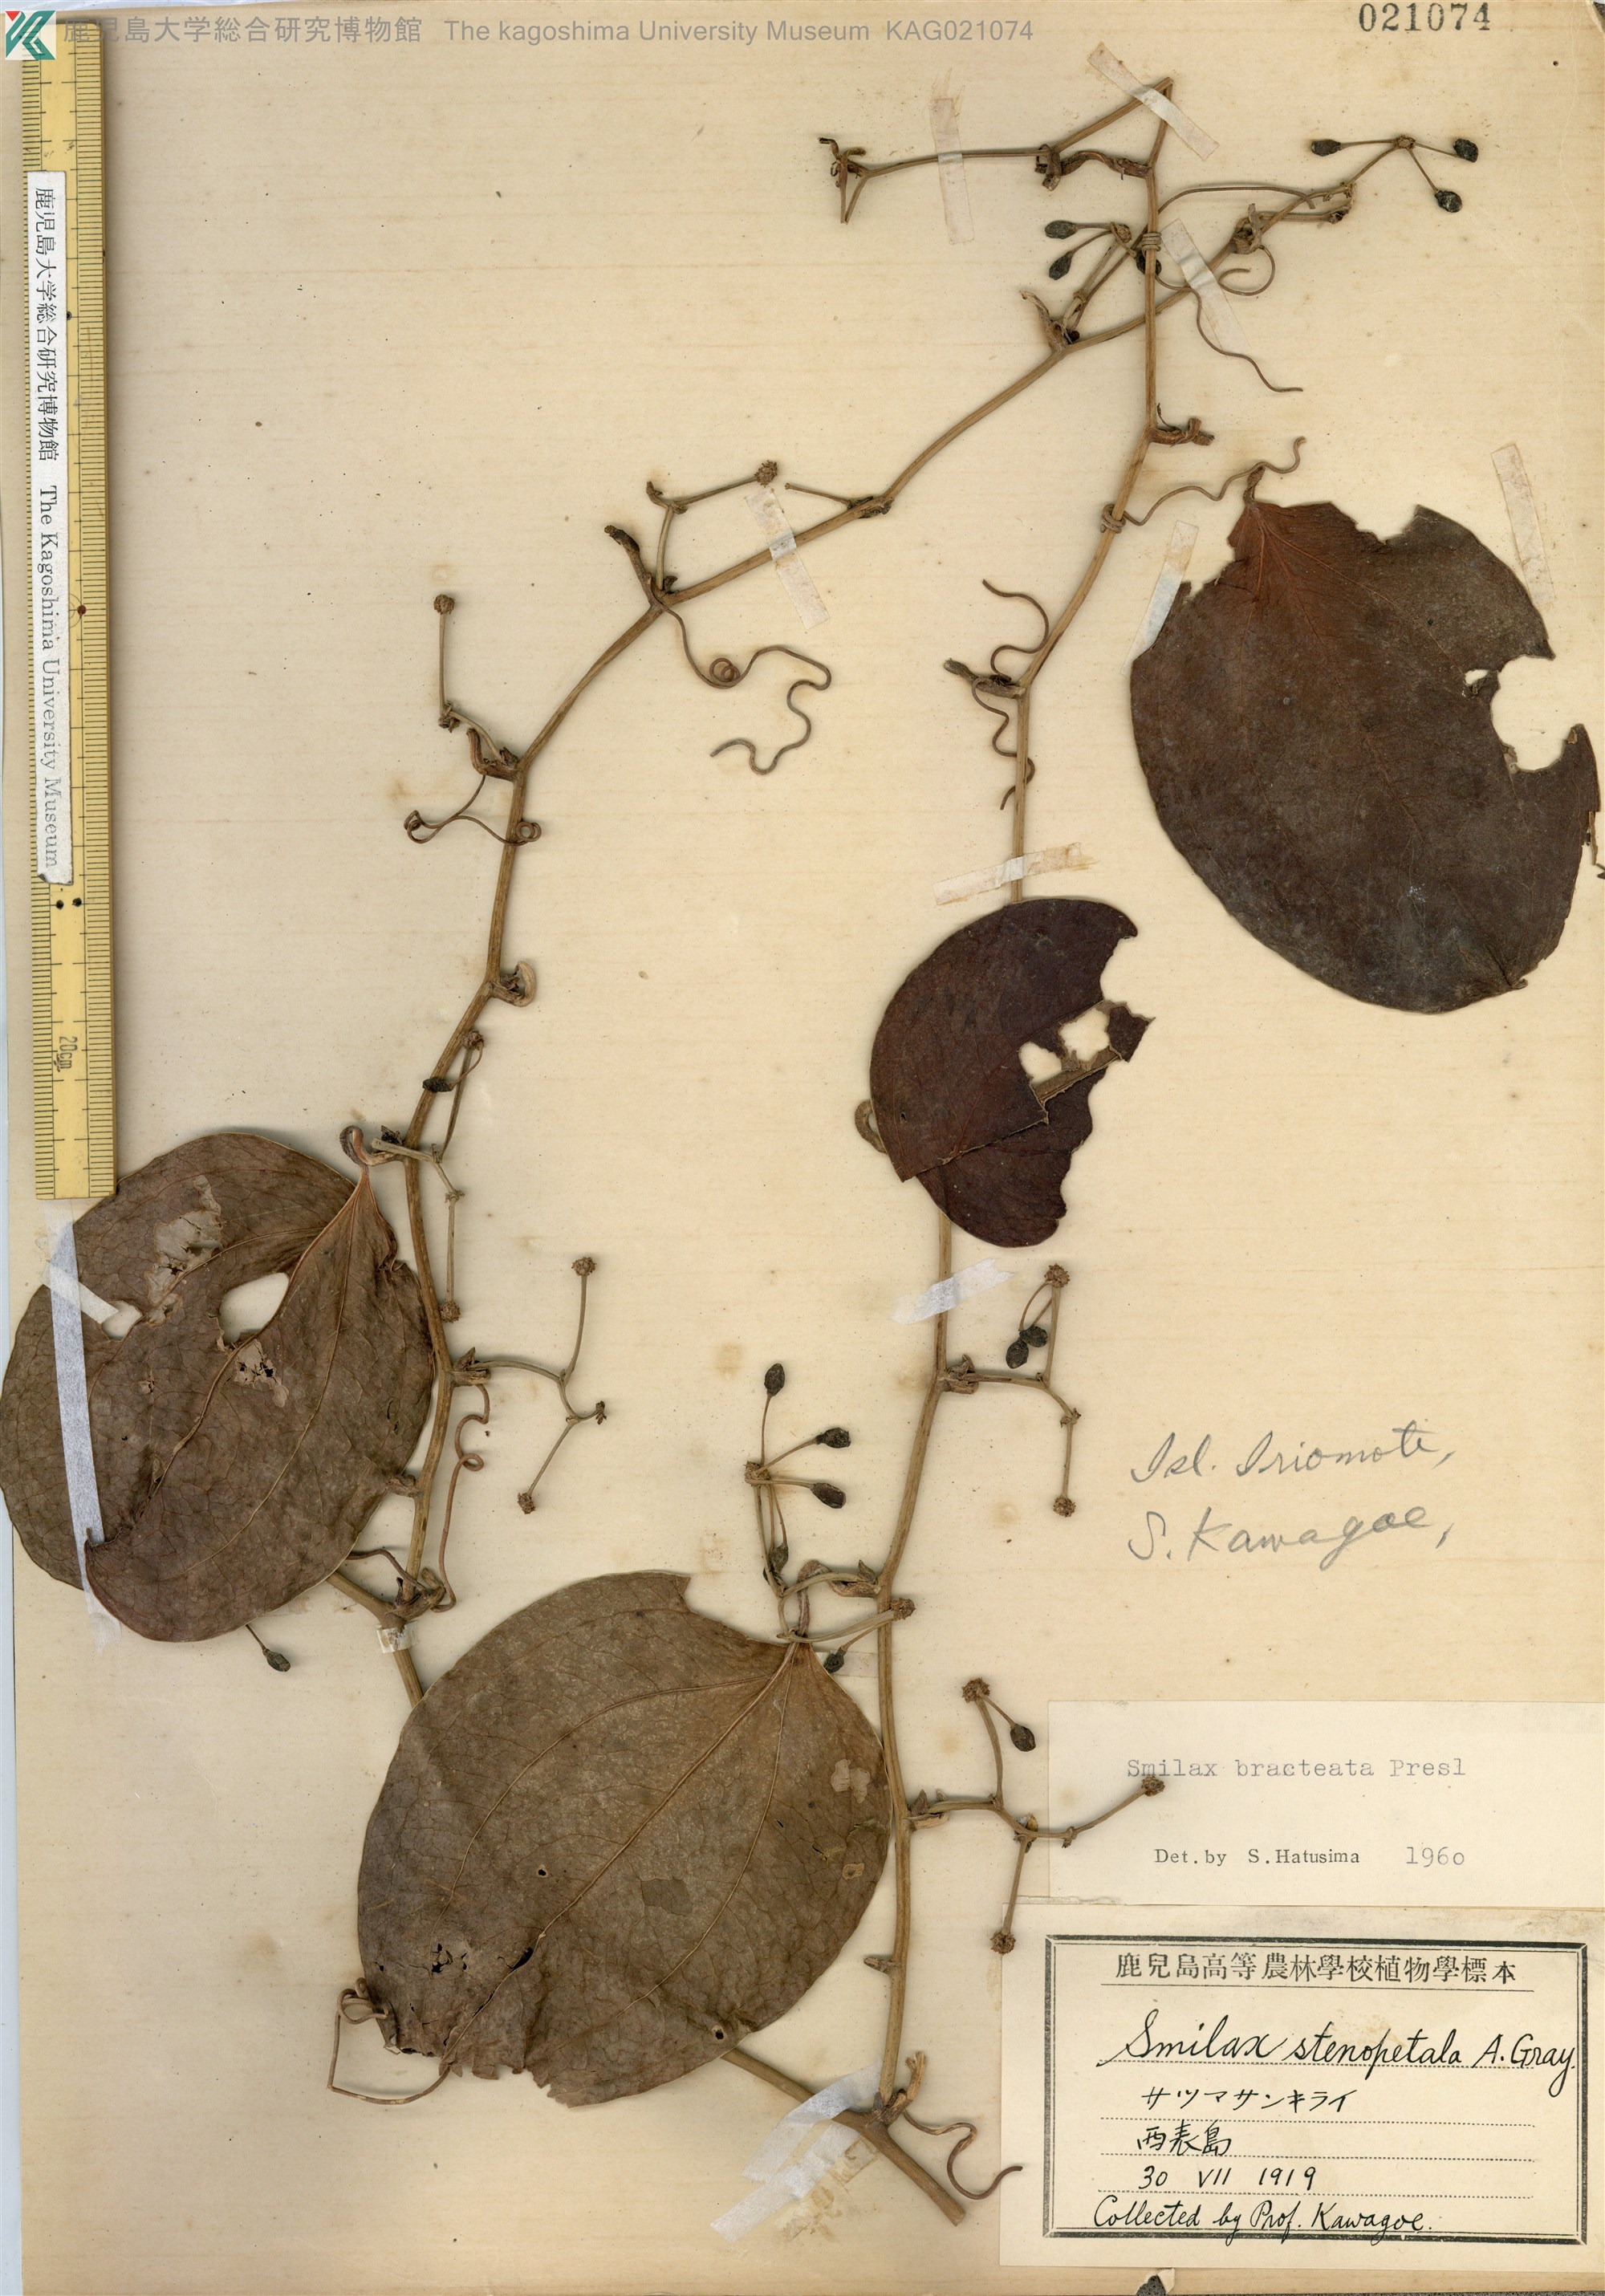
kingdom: Plantae
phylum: Tracheophyta
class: Liliopsida
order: Liliales
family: Smilacaceae
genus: Smilax
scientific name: Smilax bracteata
